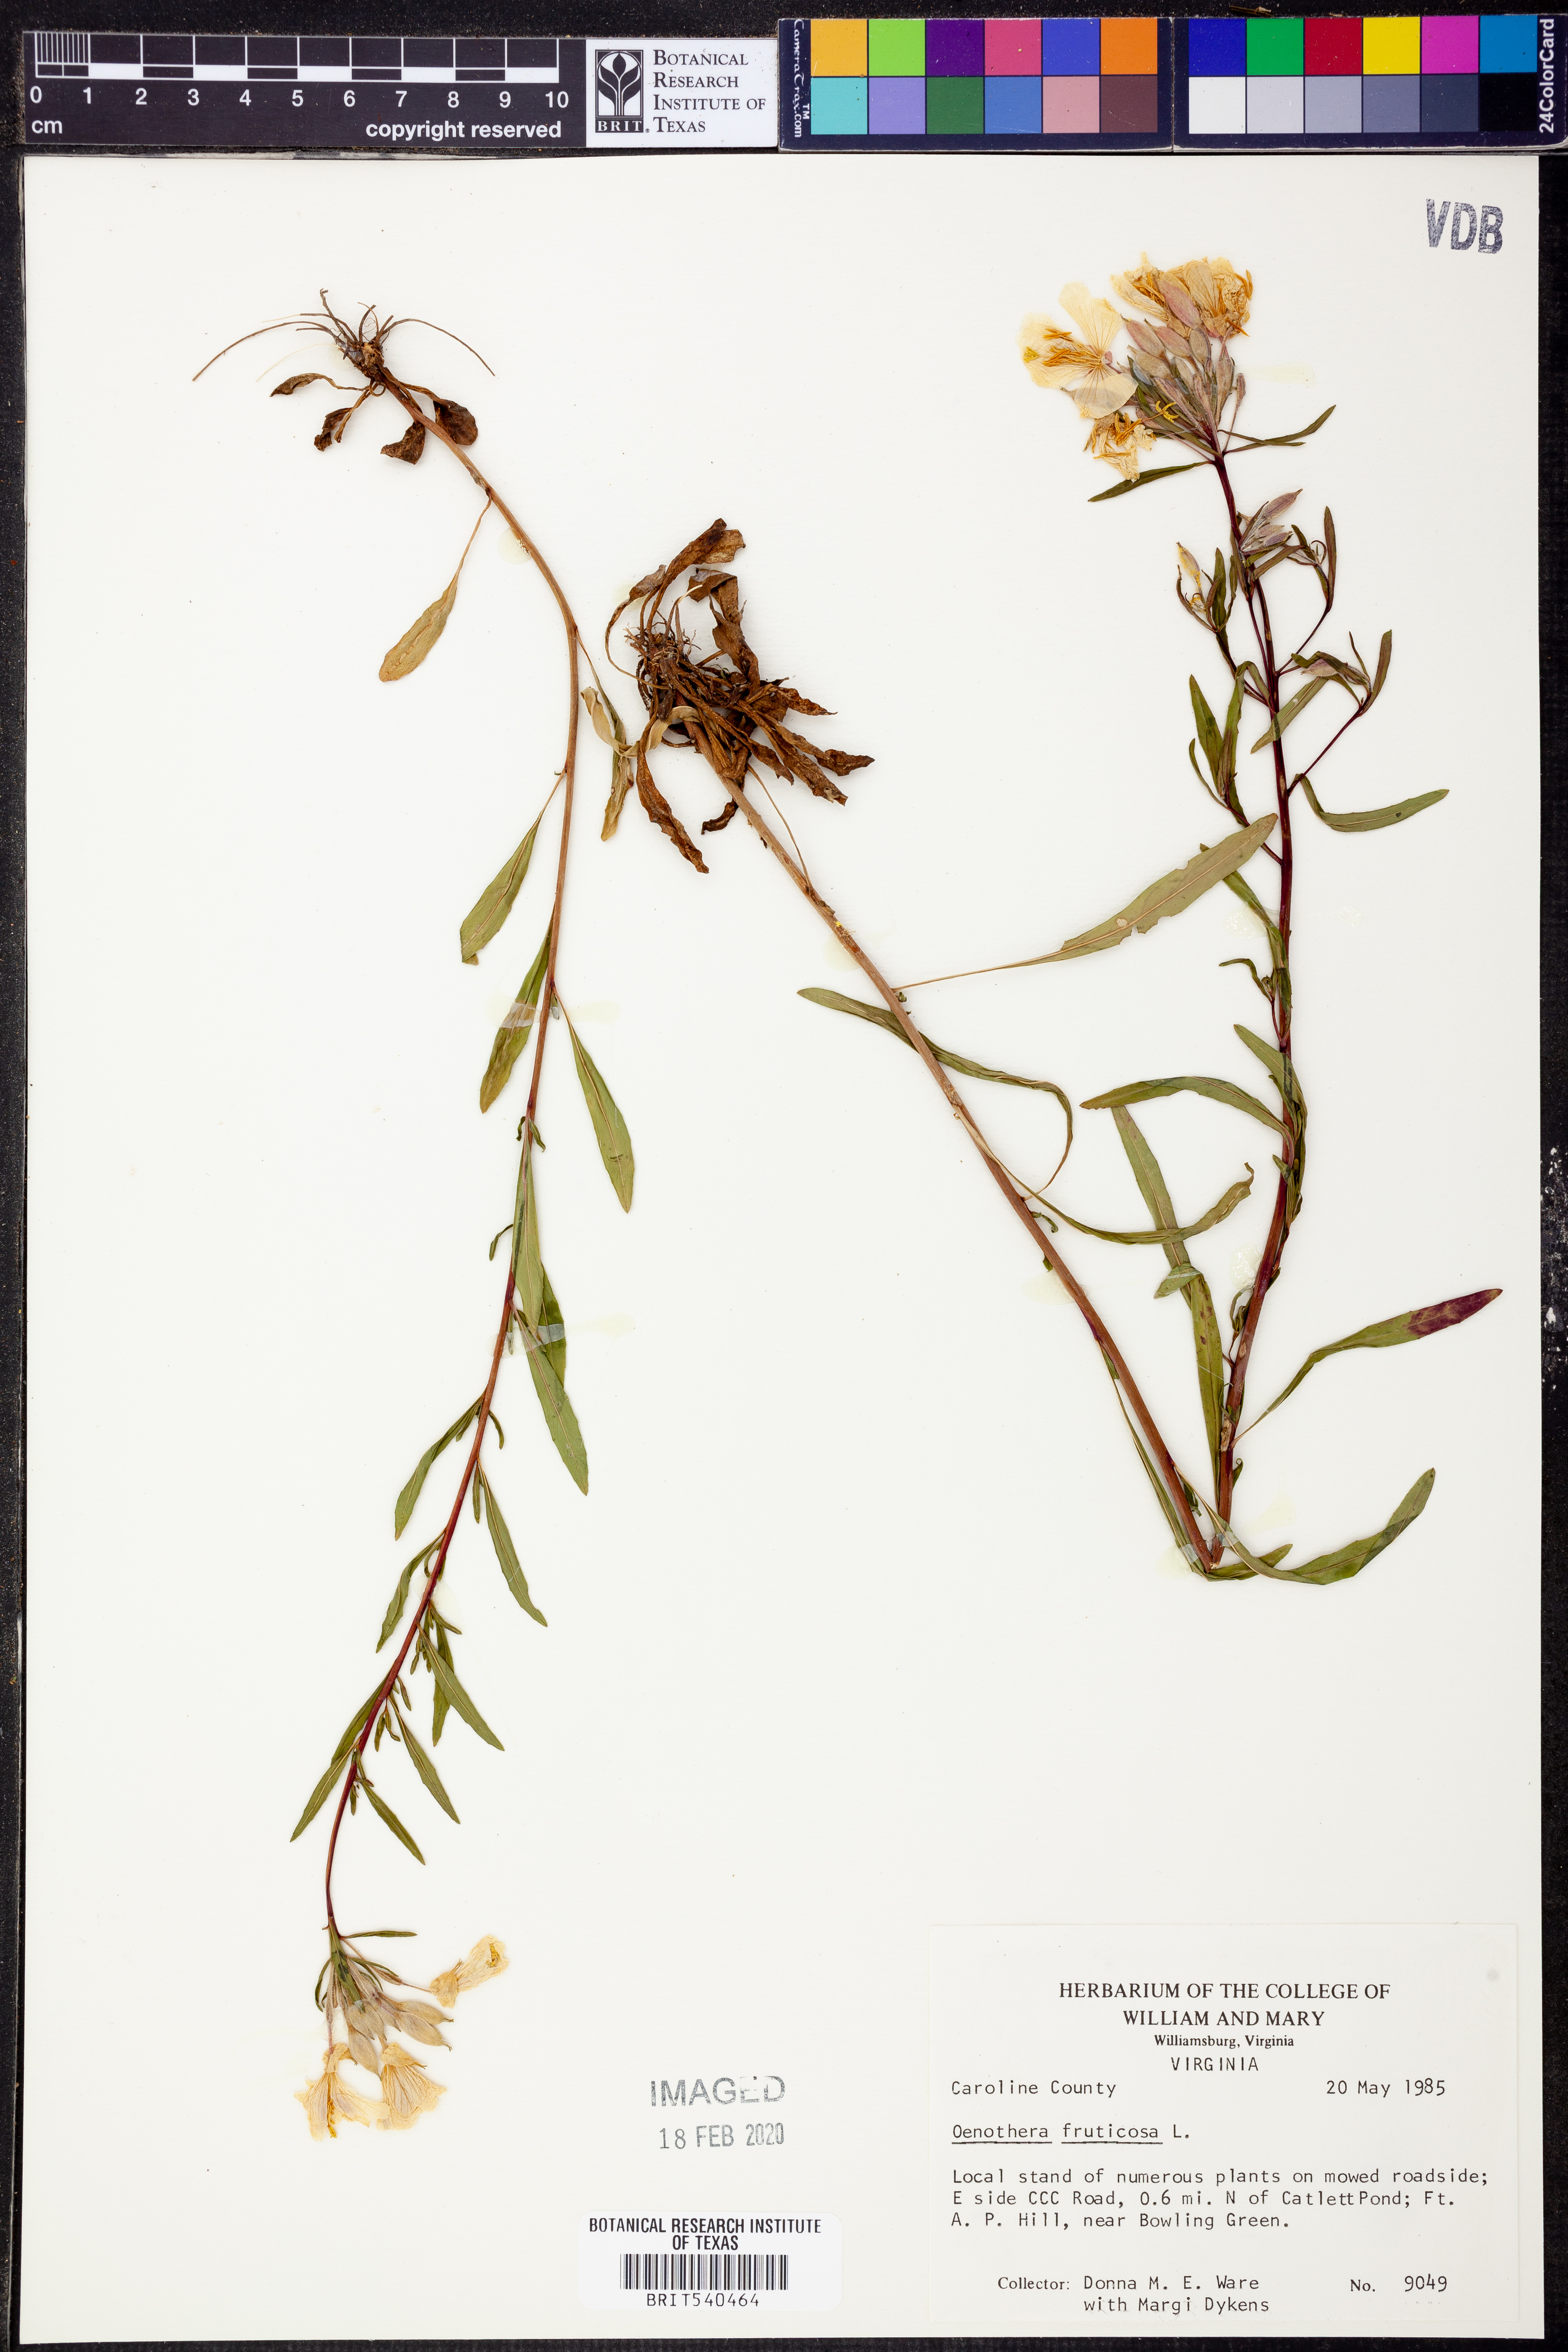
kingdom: Plantae
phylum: Tracheophyta
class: Magnoliopsida
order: Myrtales
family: Onagraceae
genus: Oenothera
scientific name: Oenothera fruticosa
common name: Southern sundrops
